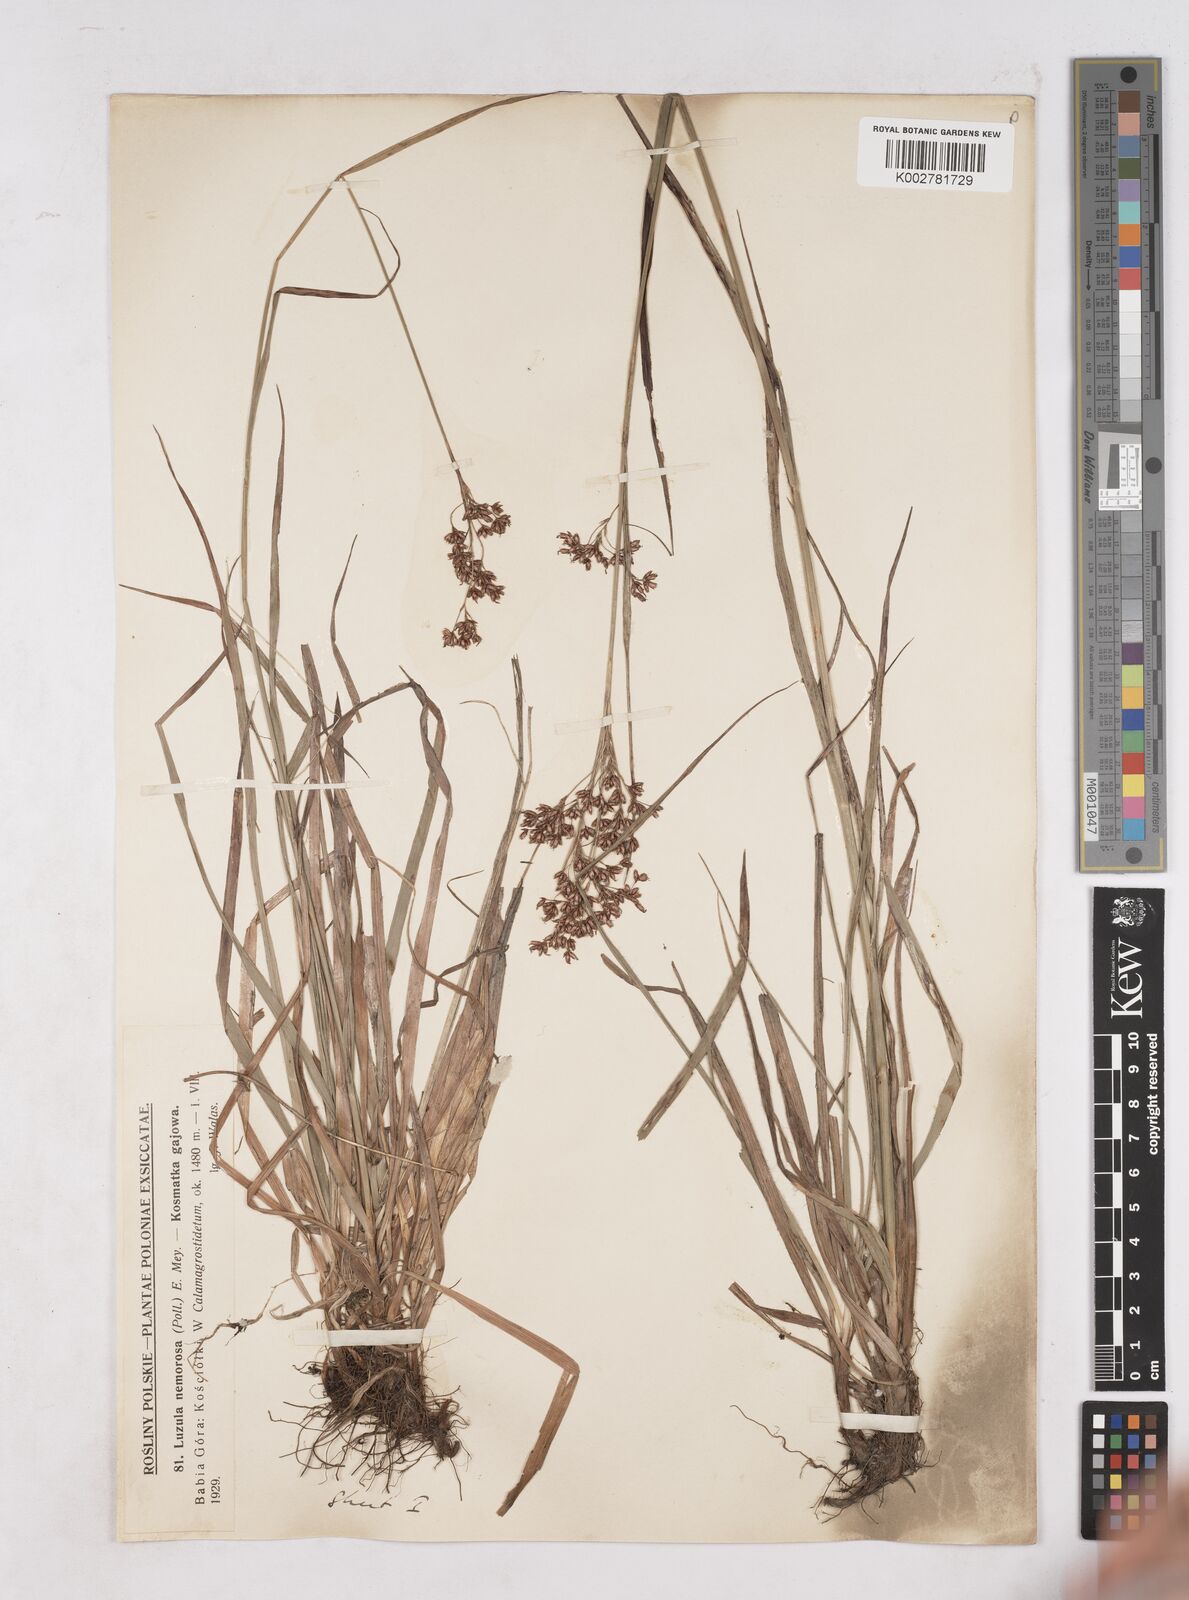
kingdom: Plantae
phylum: Tracheophyta
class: Liliopsida
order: Poales
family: Juncaceae
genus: Luzula
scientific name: Luzula luzuloides
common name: White wood-rush
